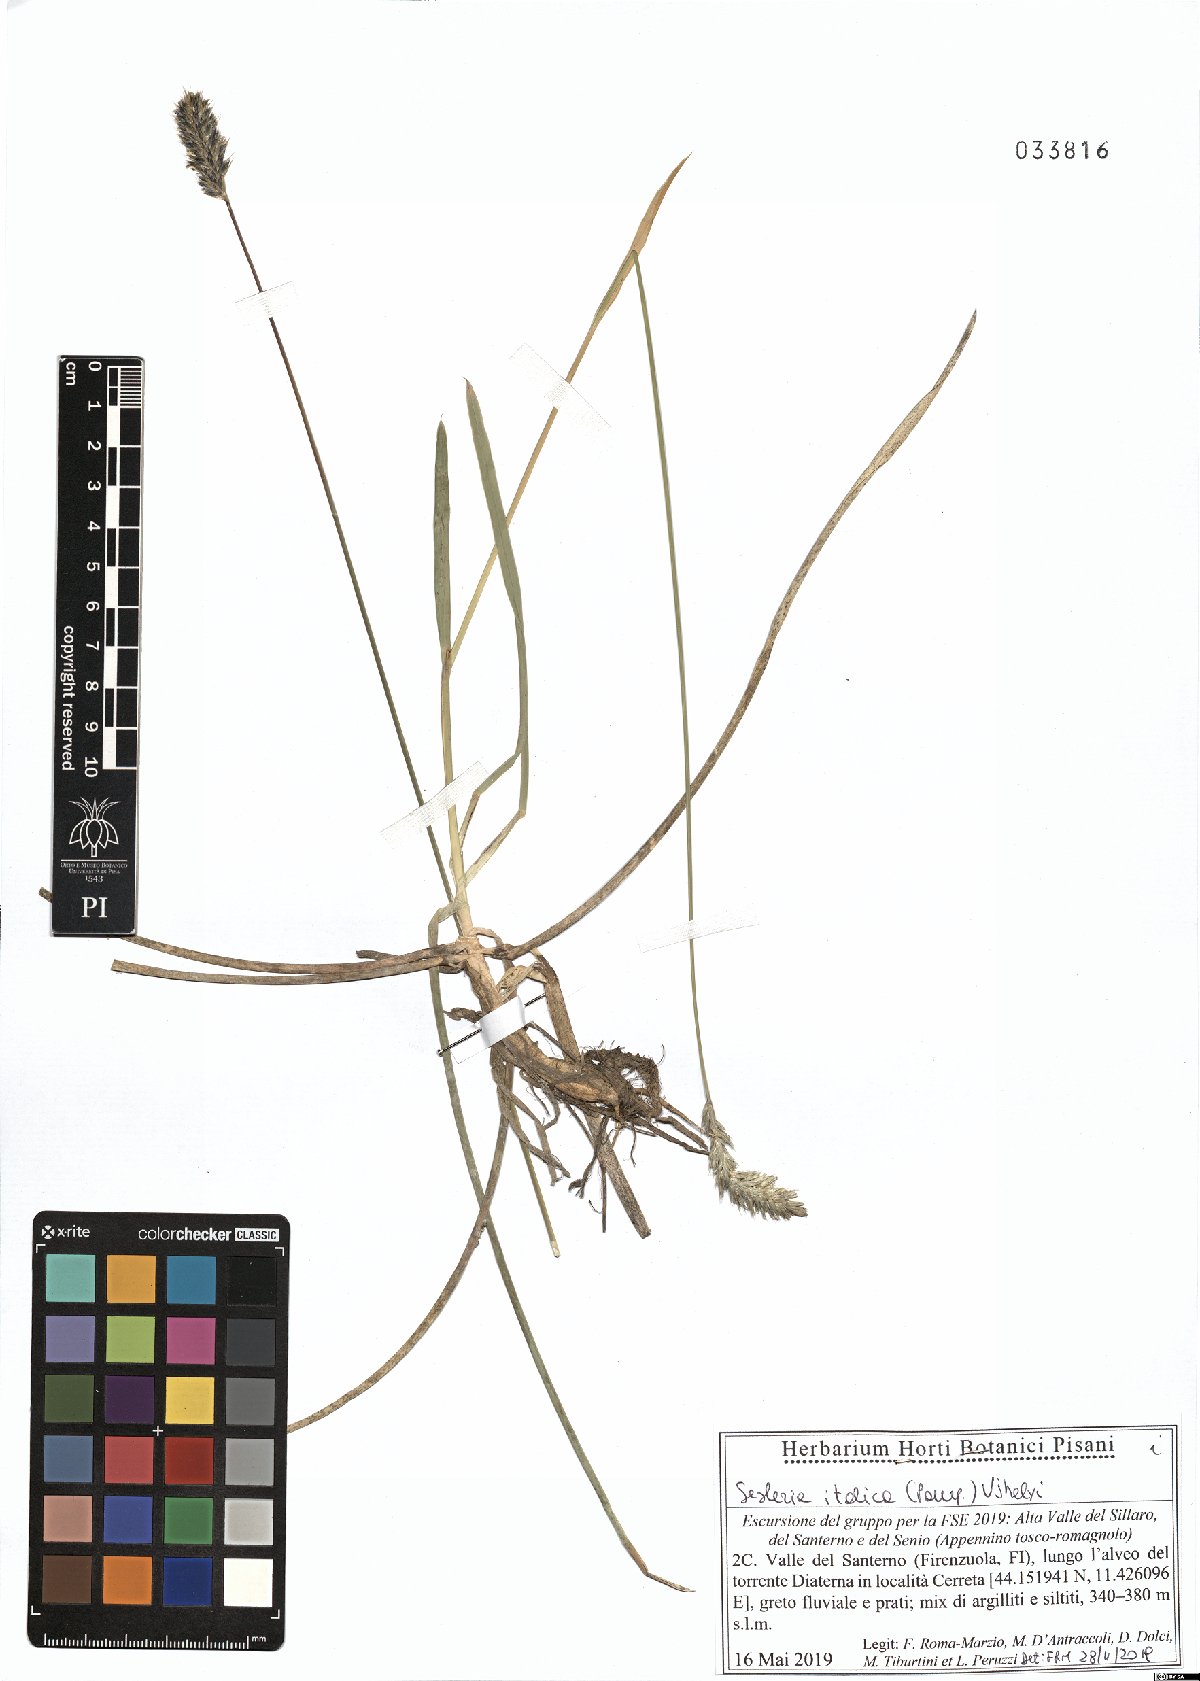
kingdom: Plantae
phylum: Tracheophyta
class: Liliopsida
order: Poales
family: Poaceae
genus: Sesleria
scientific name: Sesleria italica
